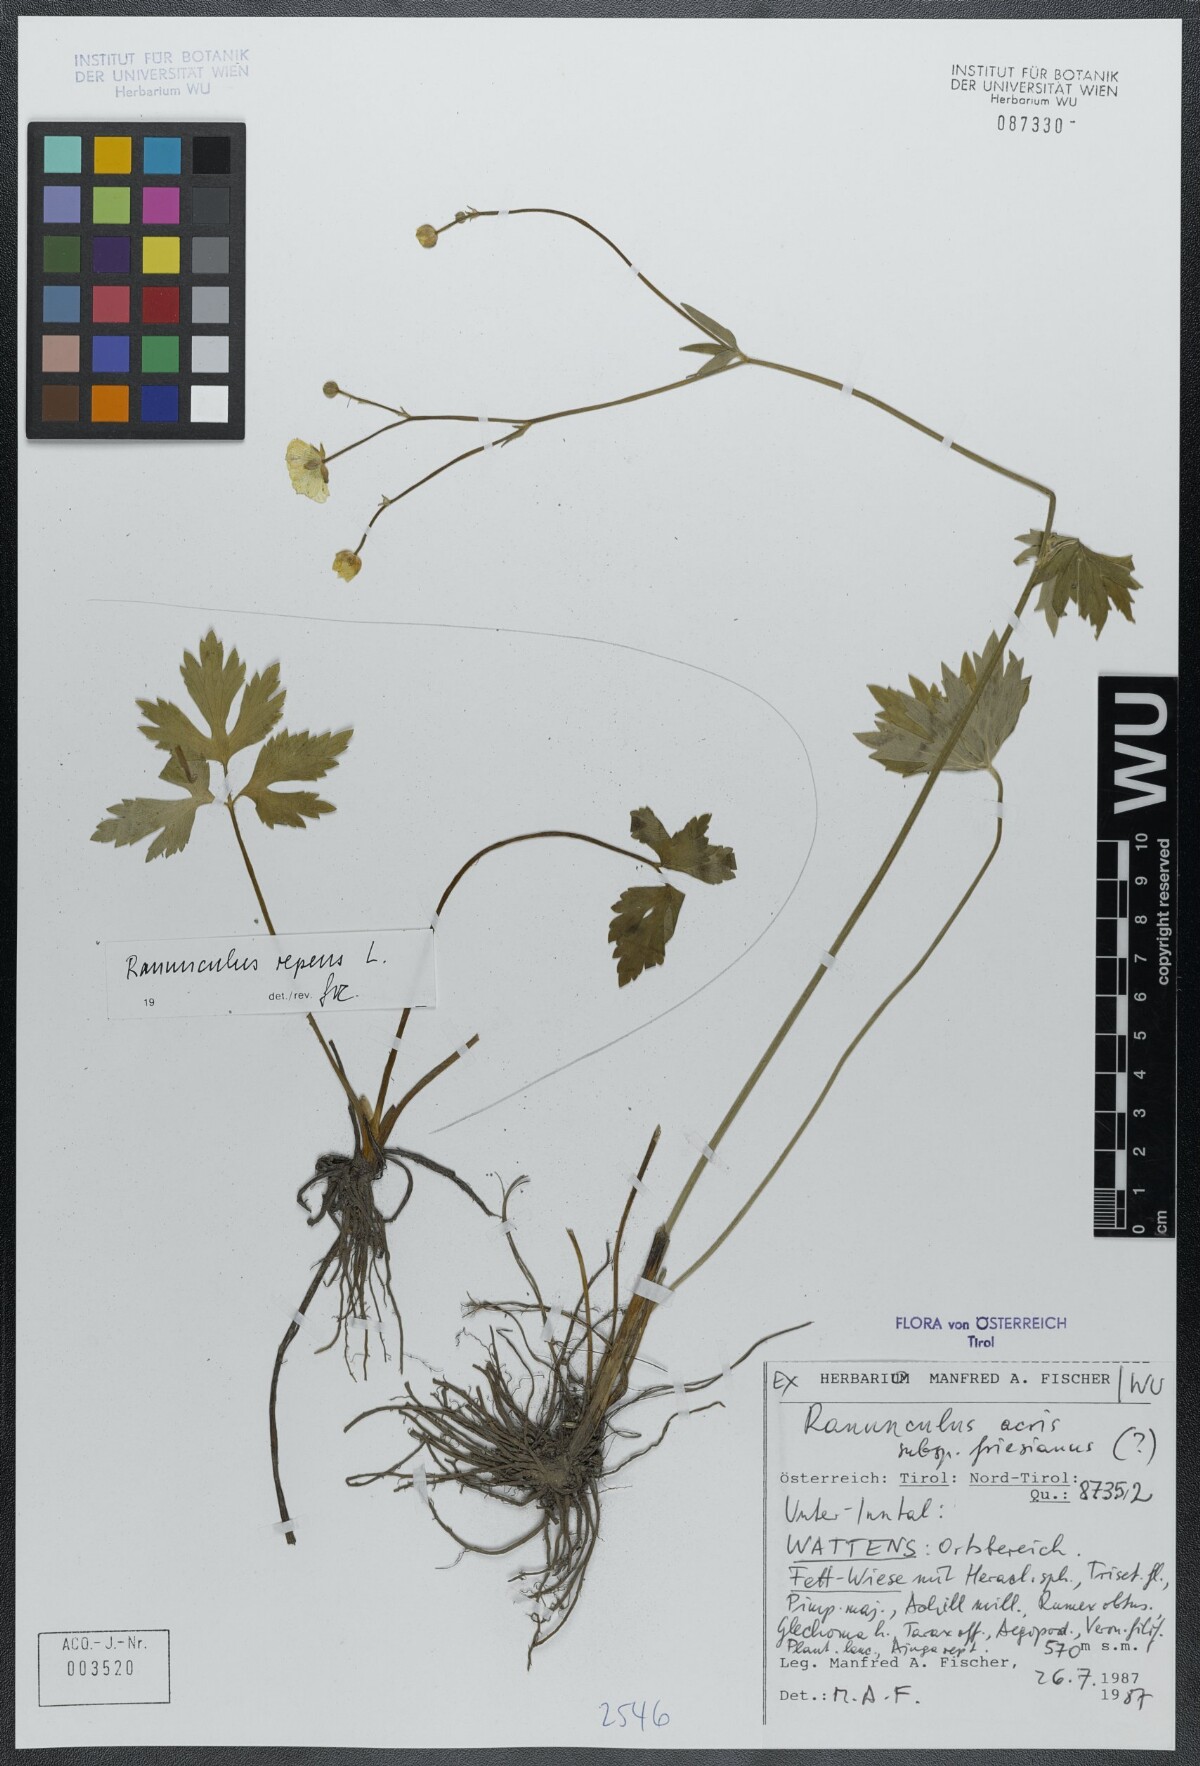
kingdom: Plantae
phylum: Tracheophyta
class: Magnoliopsida
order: Ranunculales
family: Ranunculaceae
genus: Ranunculus
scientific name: Ranunculus acris
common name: Meadow buttercup
